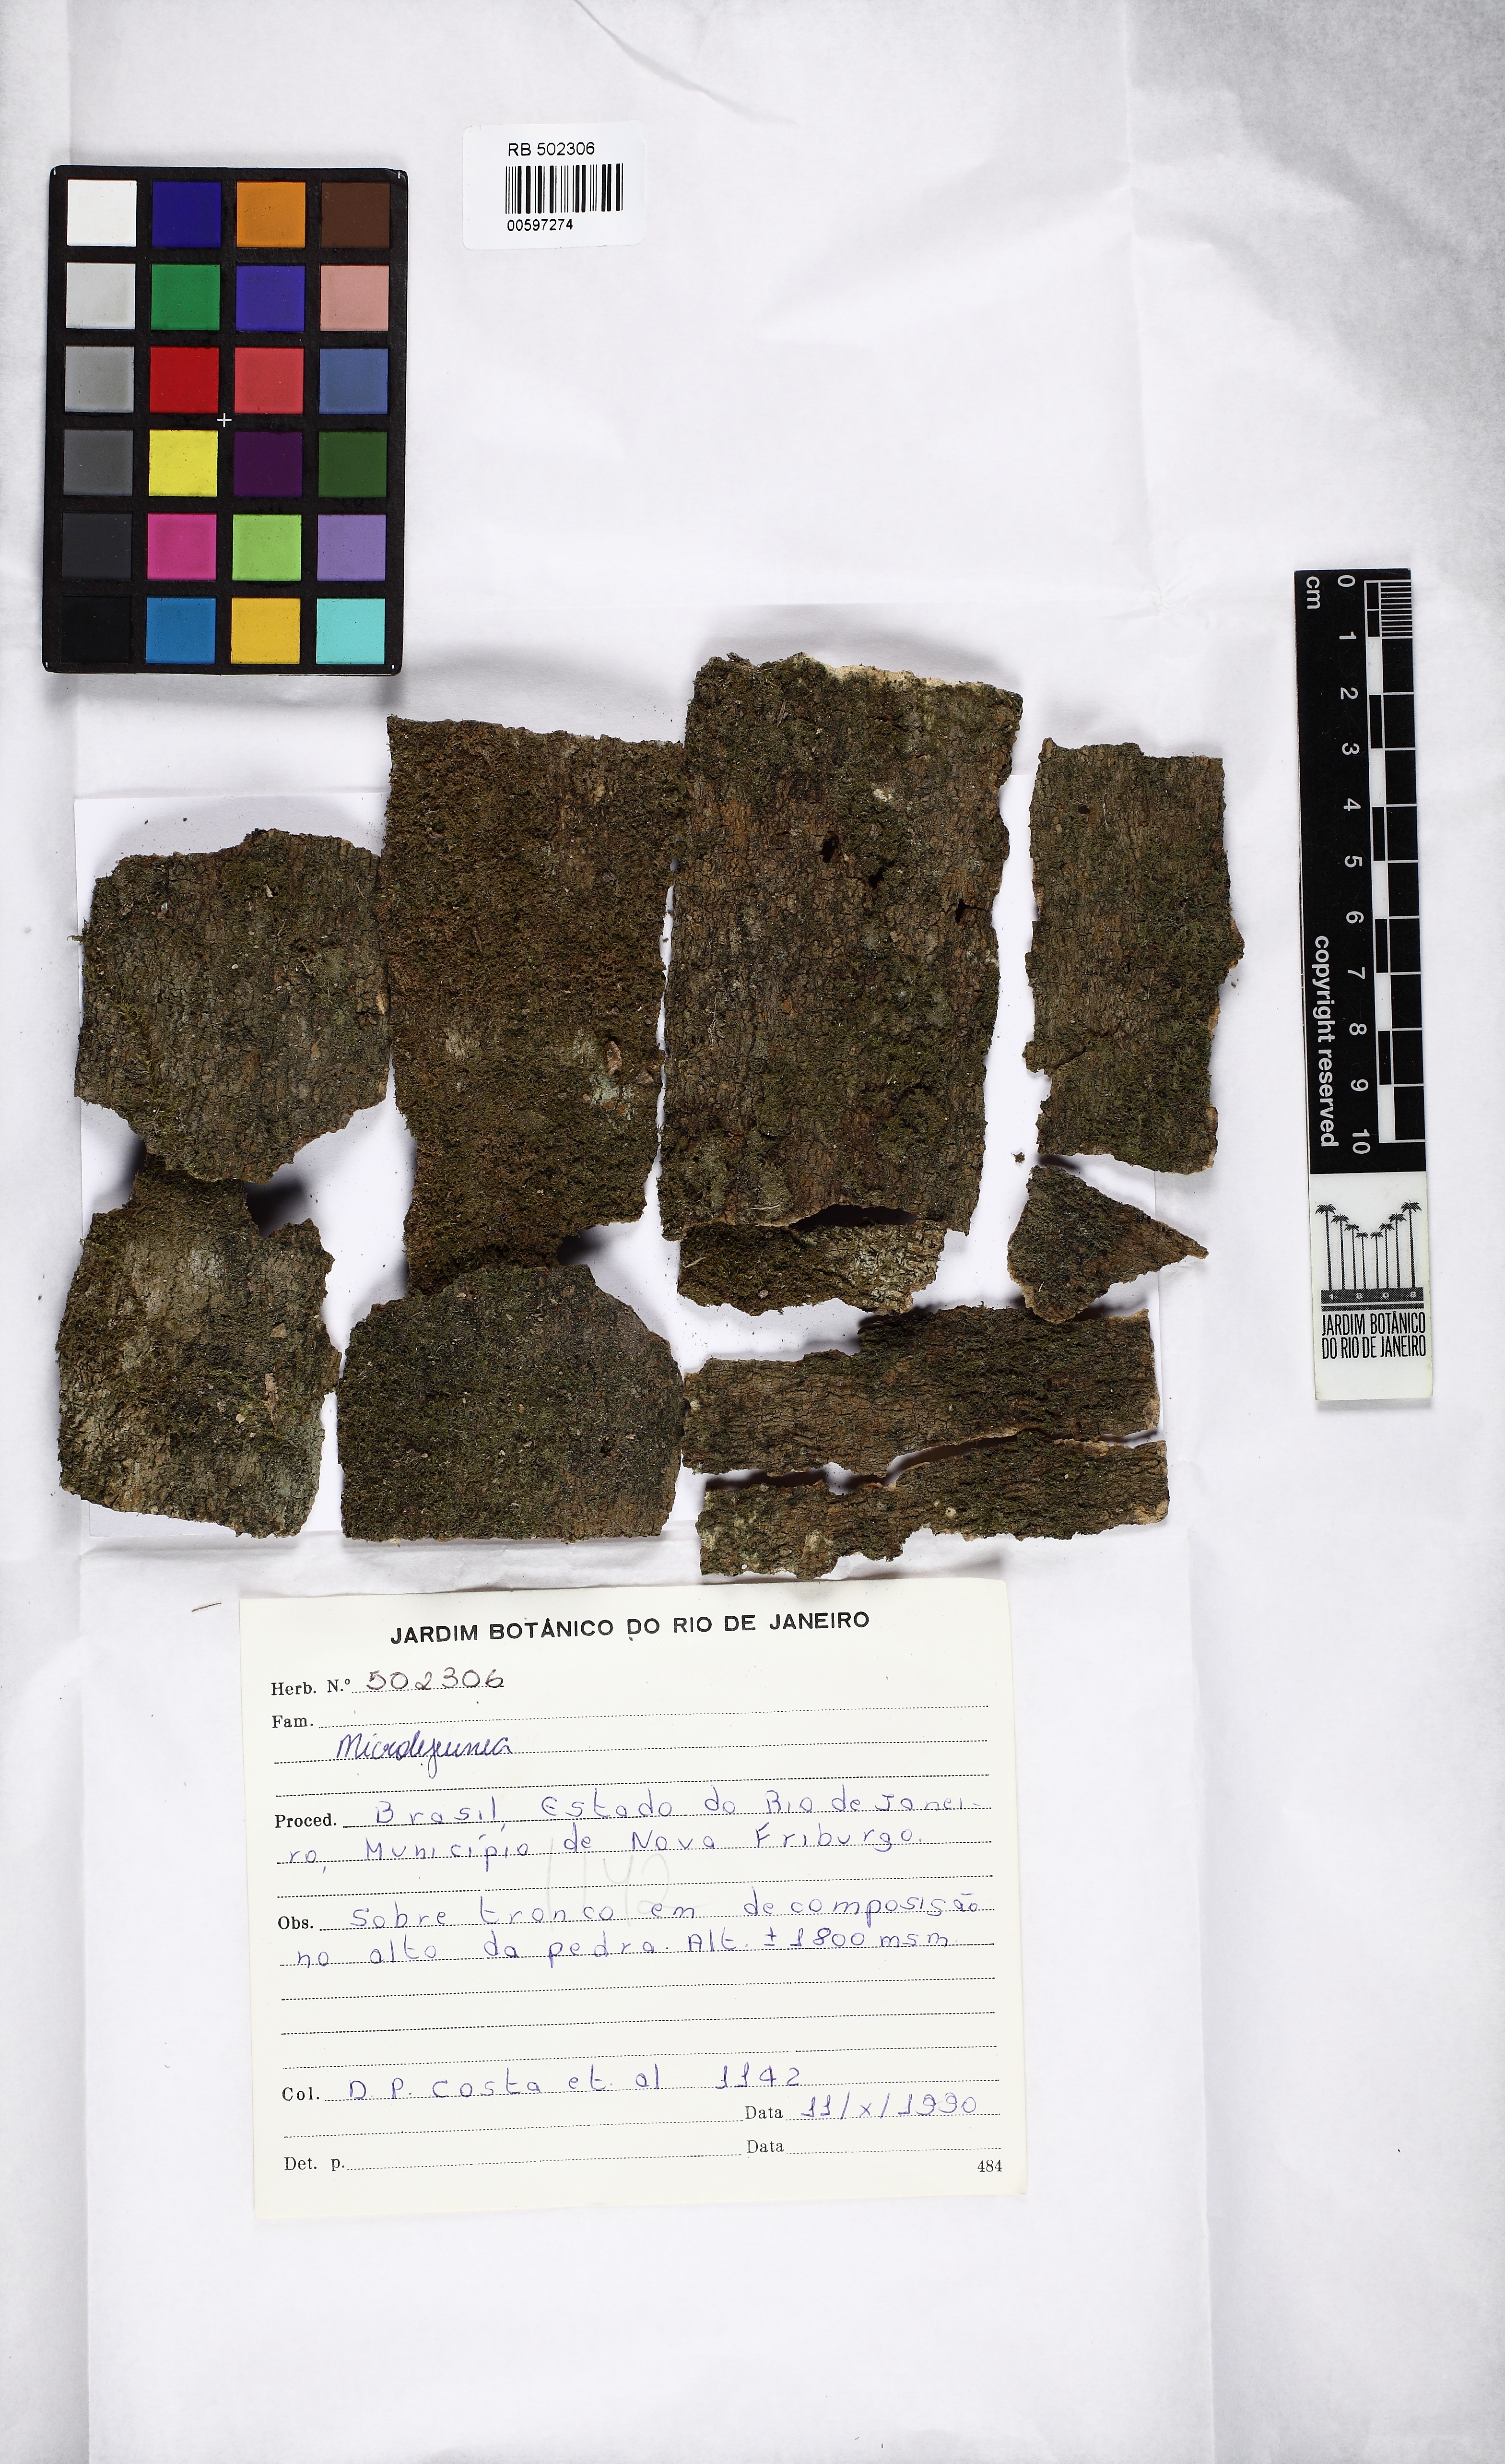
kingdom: Plantae
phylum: Marchantiophyta
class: Jungermanniopsida
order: Porellales
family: Lejeuneaceae
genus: Microlejeunea
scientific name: Microlejeunea
